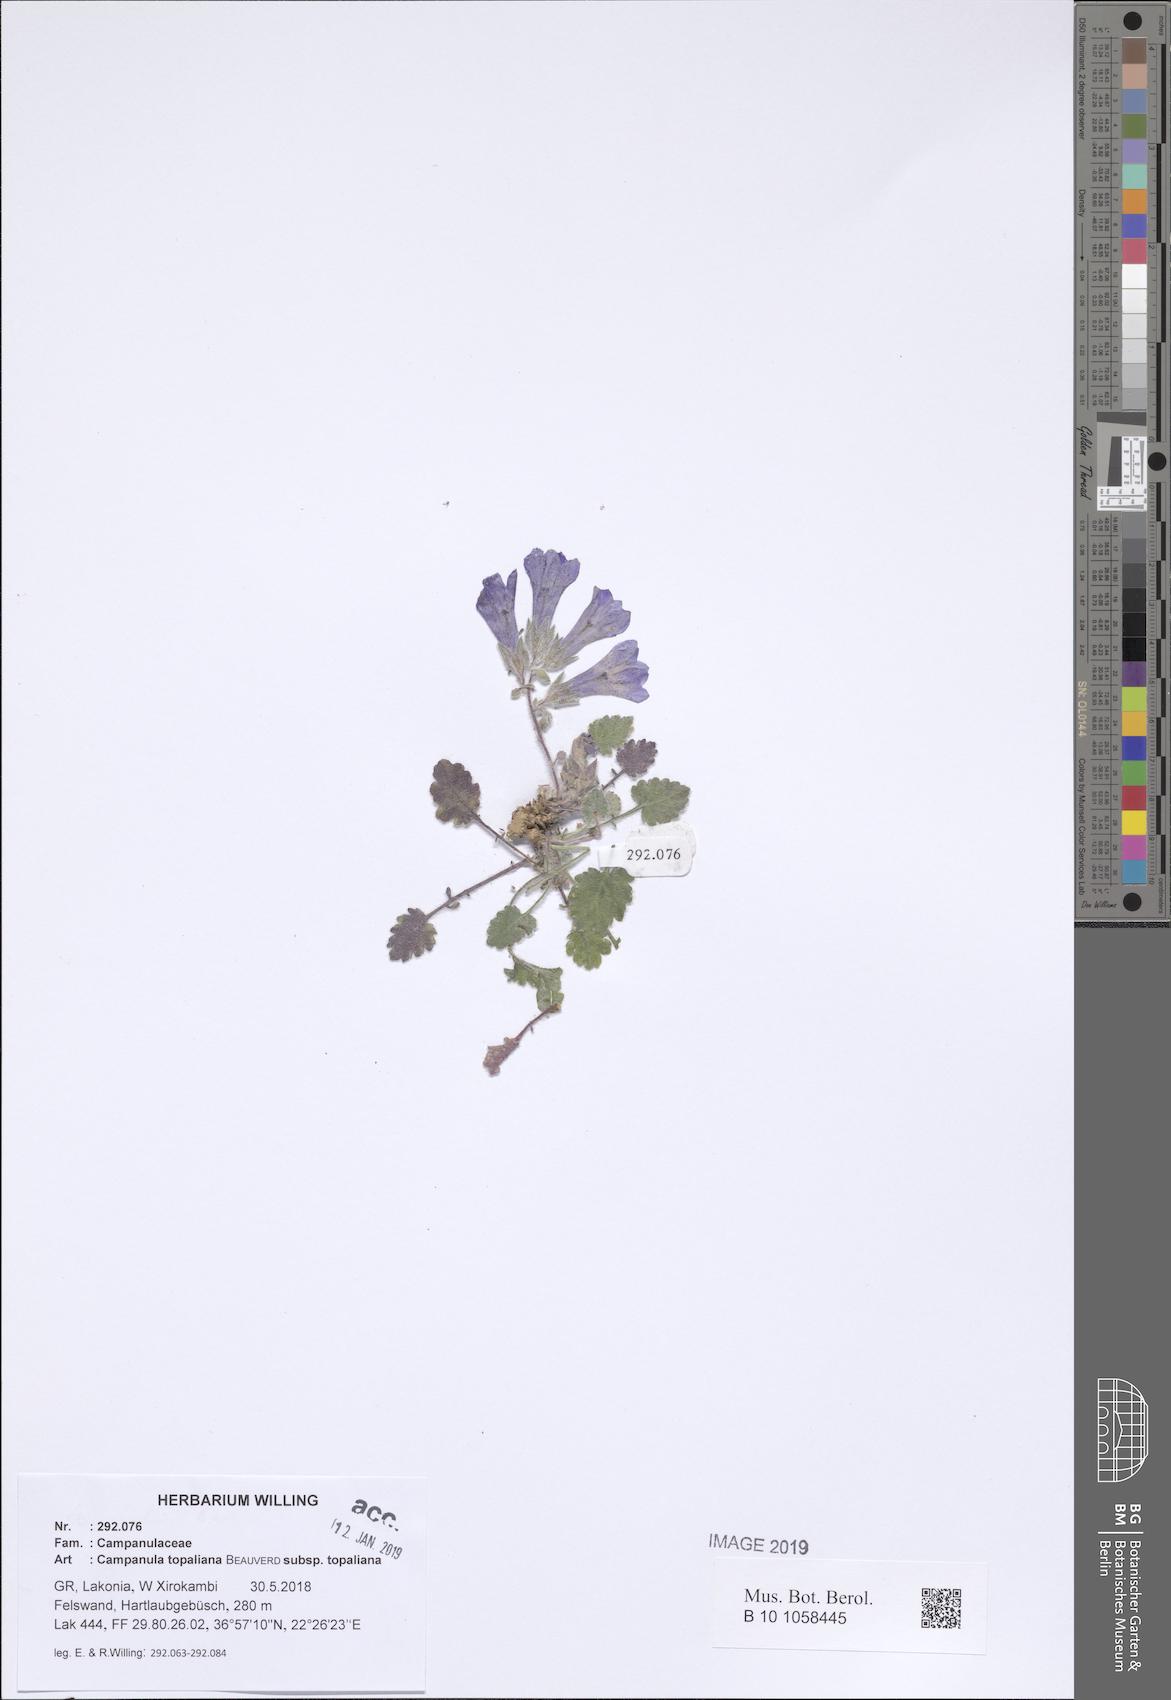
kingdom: Plantae
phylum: Tracheophyta
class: Magnoliopsida
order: Asterales
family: Campanulaceae
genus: Campanula
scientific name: Campanula topaliana
